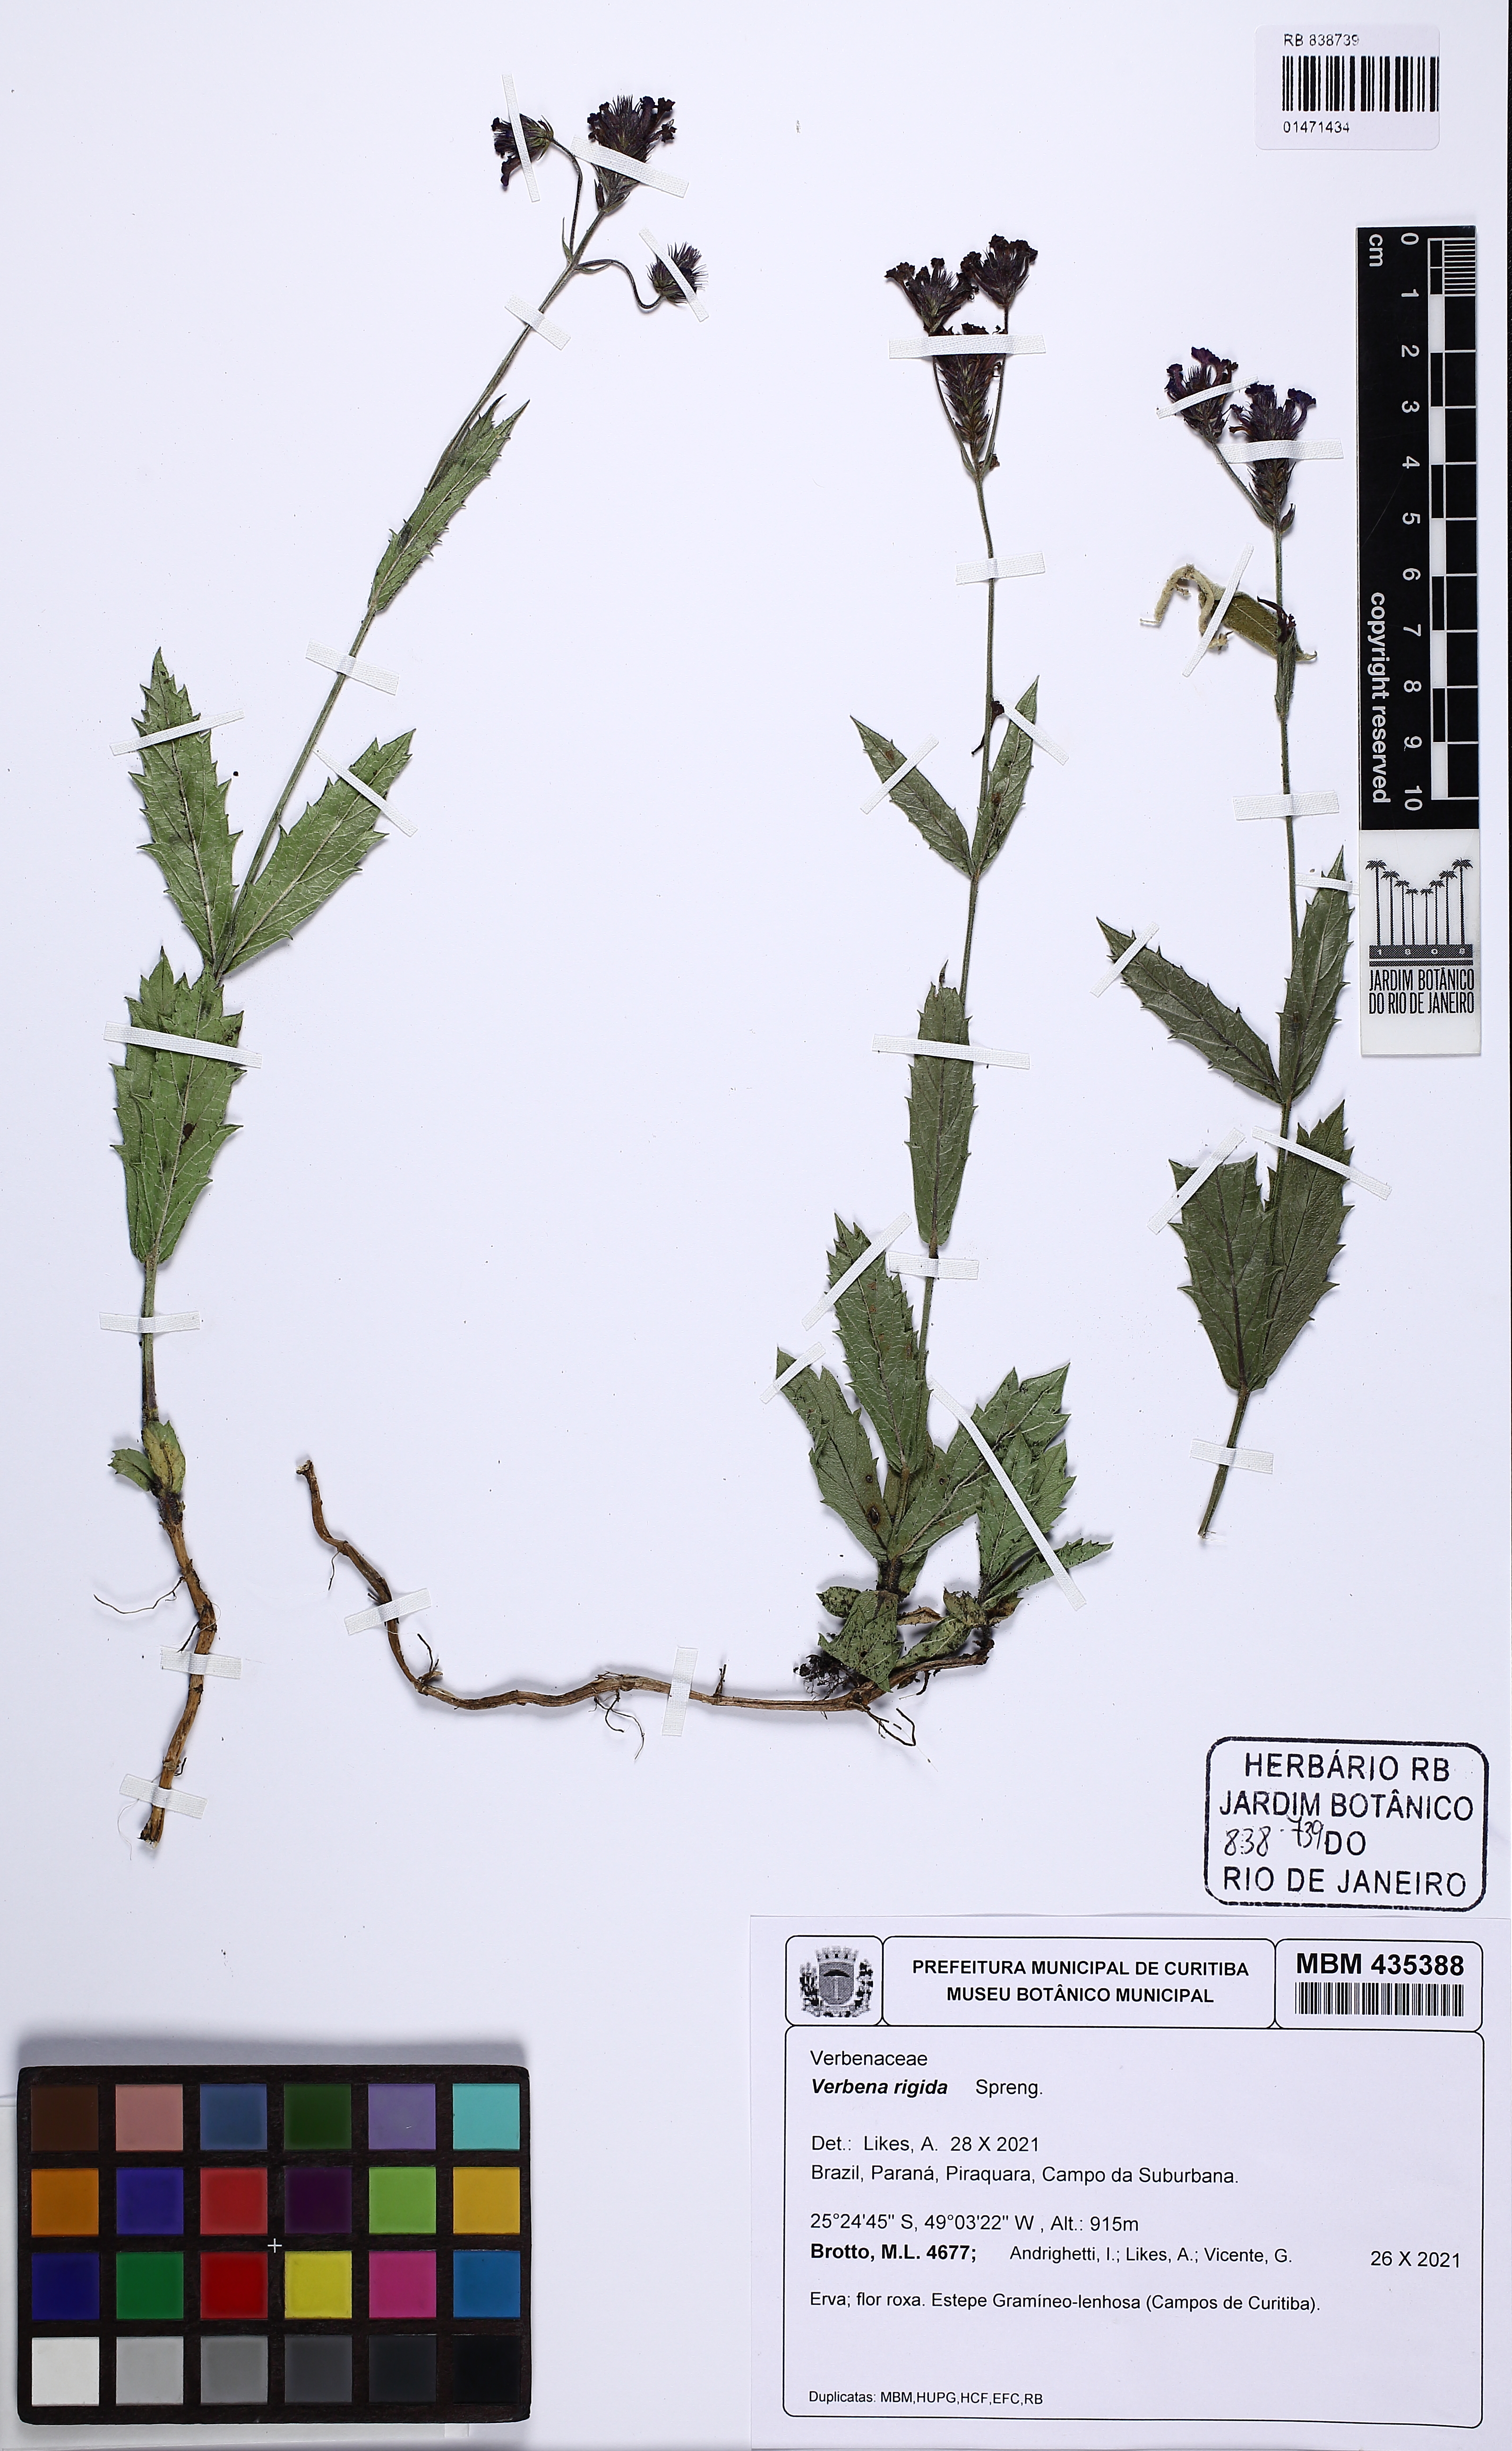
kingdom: Plantae
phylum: Tracheophyta
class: Magnoliopsida
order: Lamiales
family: Verbenaceae
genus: Verbena
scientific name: Verbena rigida
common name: Slender vervain
